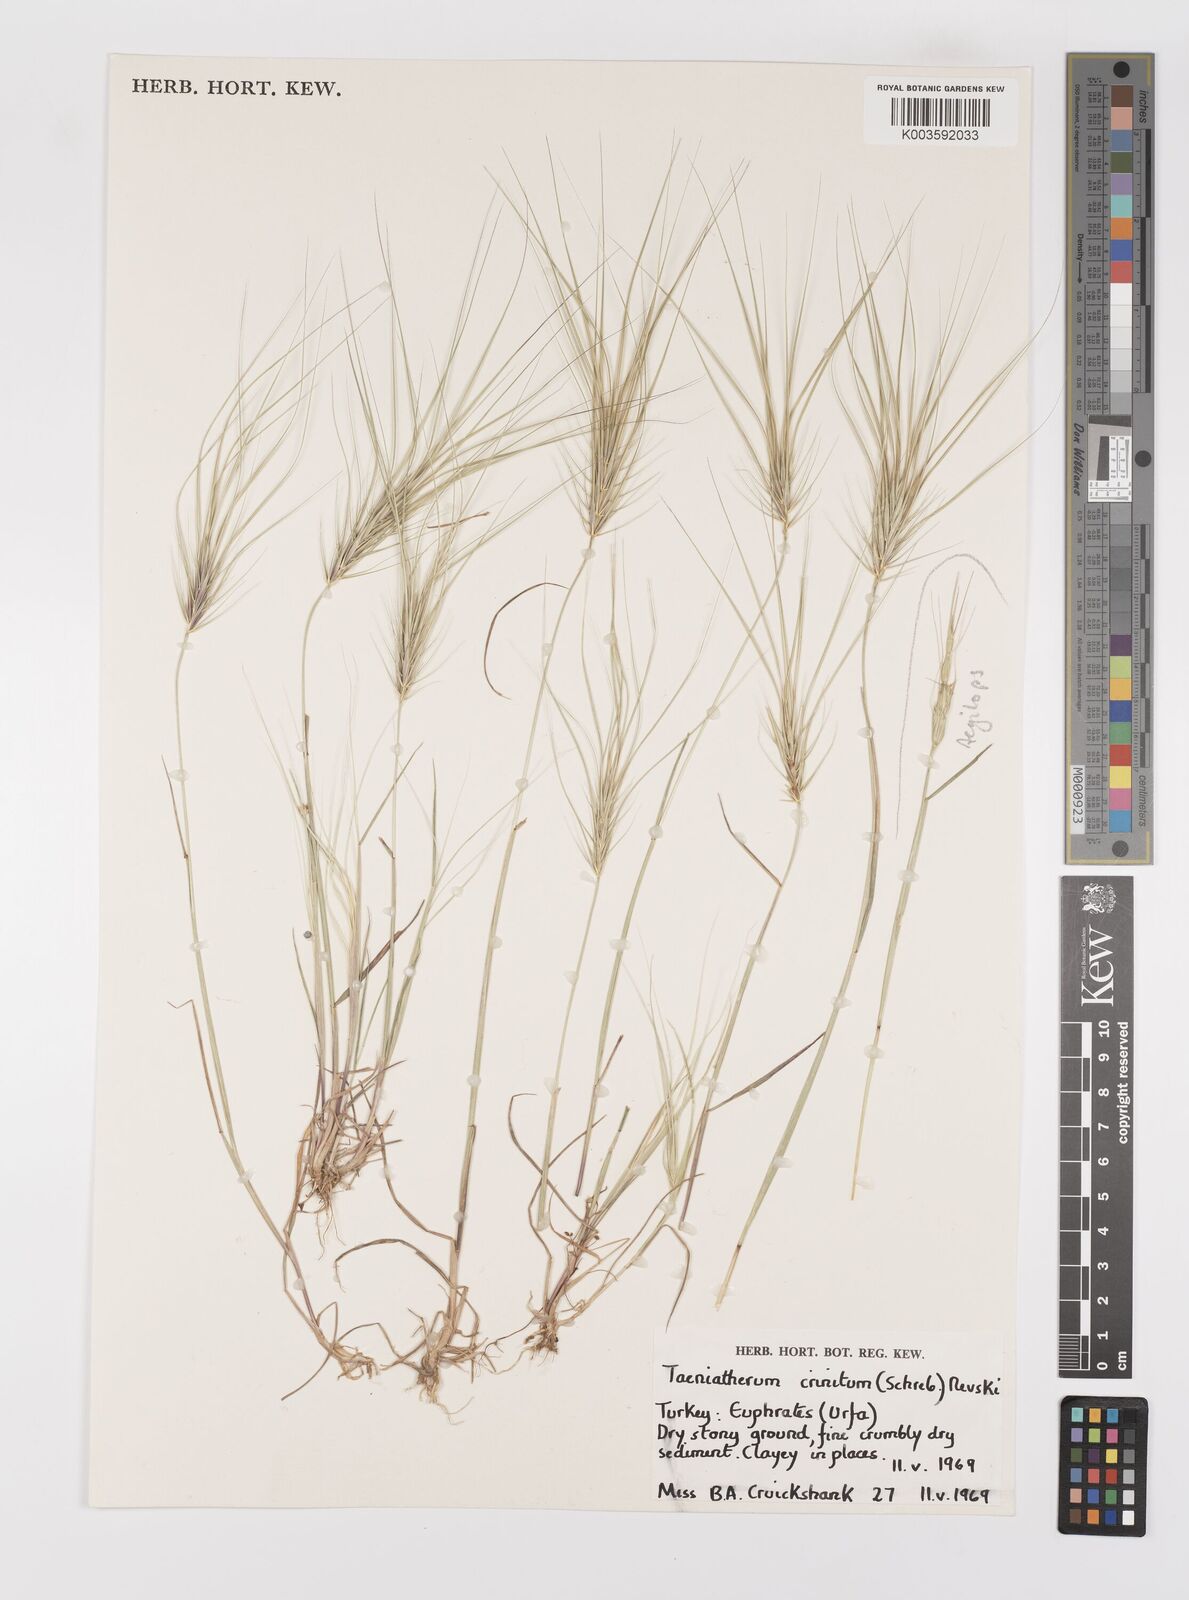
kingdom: Plantae
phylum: Tracheophyta
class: Liliopsida
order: Poales
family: Poaceae
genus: Taeniatherum
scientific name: Taeniatherum caput-medusae
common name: Medusahead
